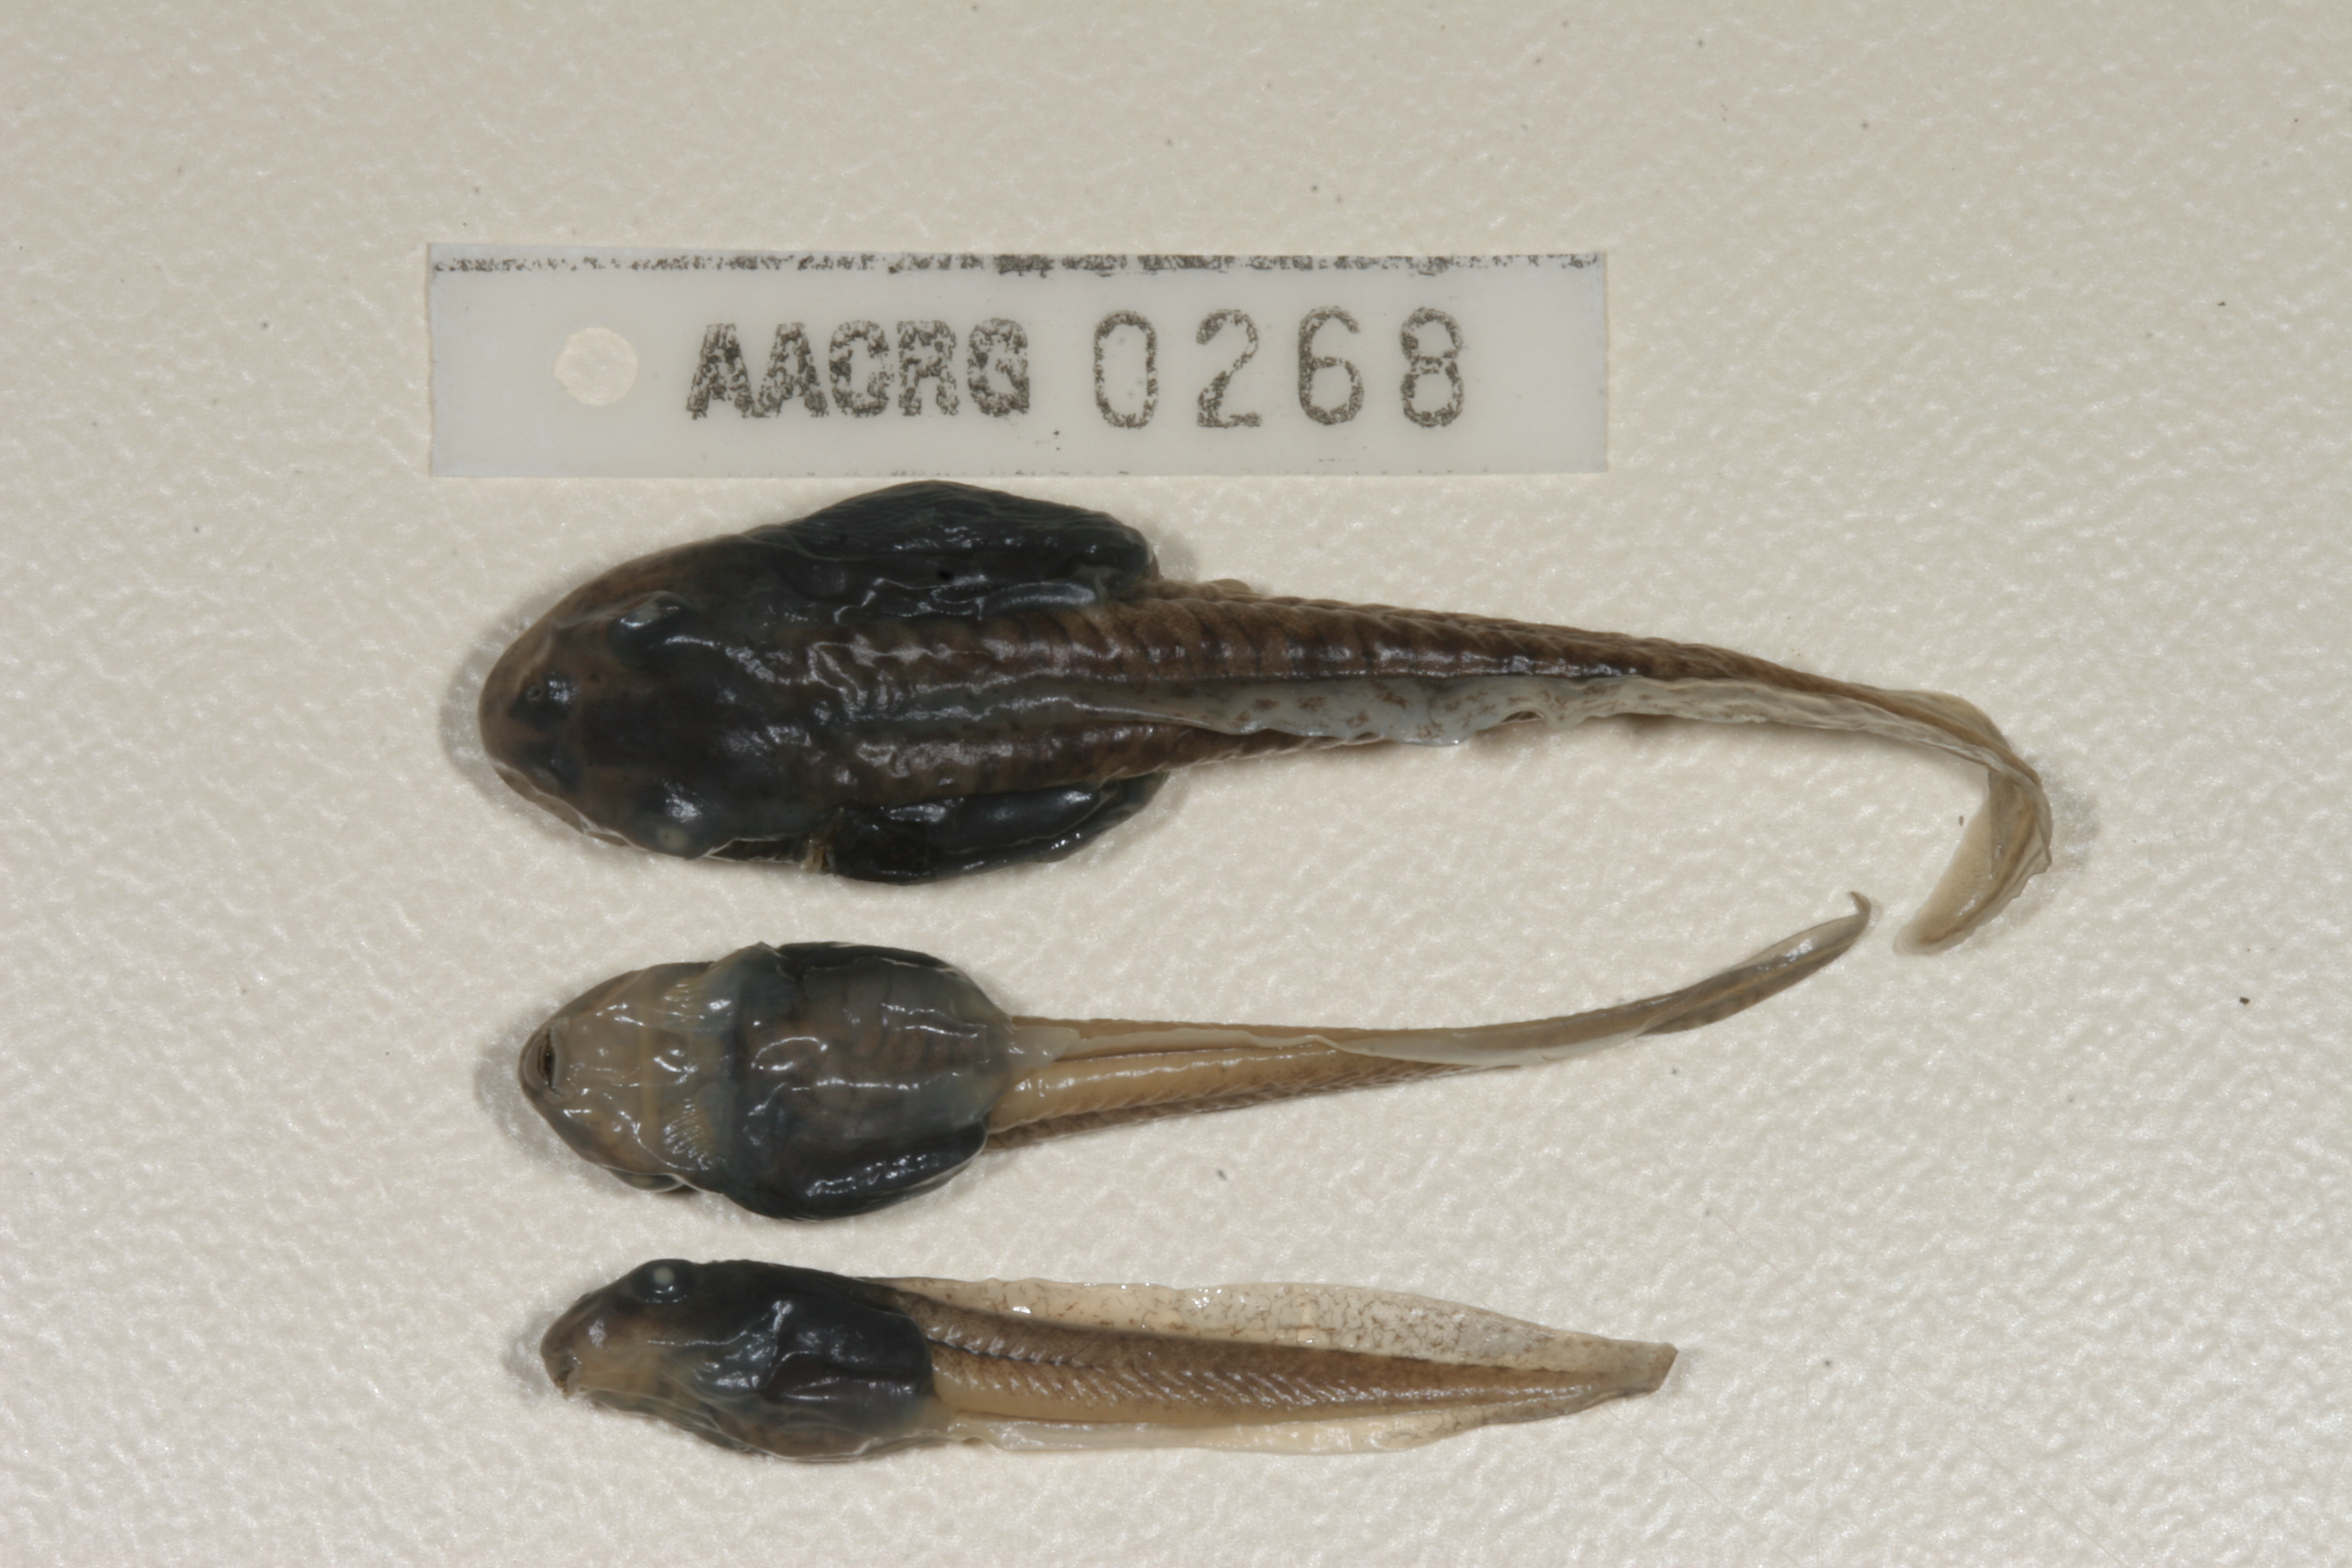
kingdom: Animalia
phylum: Chordata
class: Amphibia
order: Anura
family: Pyxicephalidae
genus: Amietia
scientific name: Amietia fuscigula
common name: Cape rana
